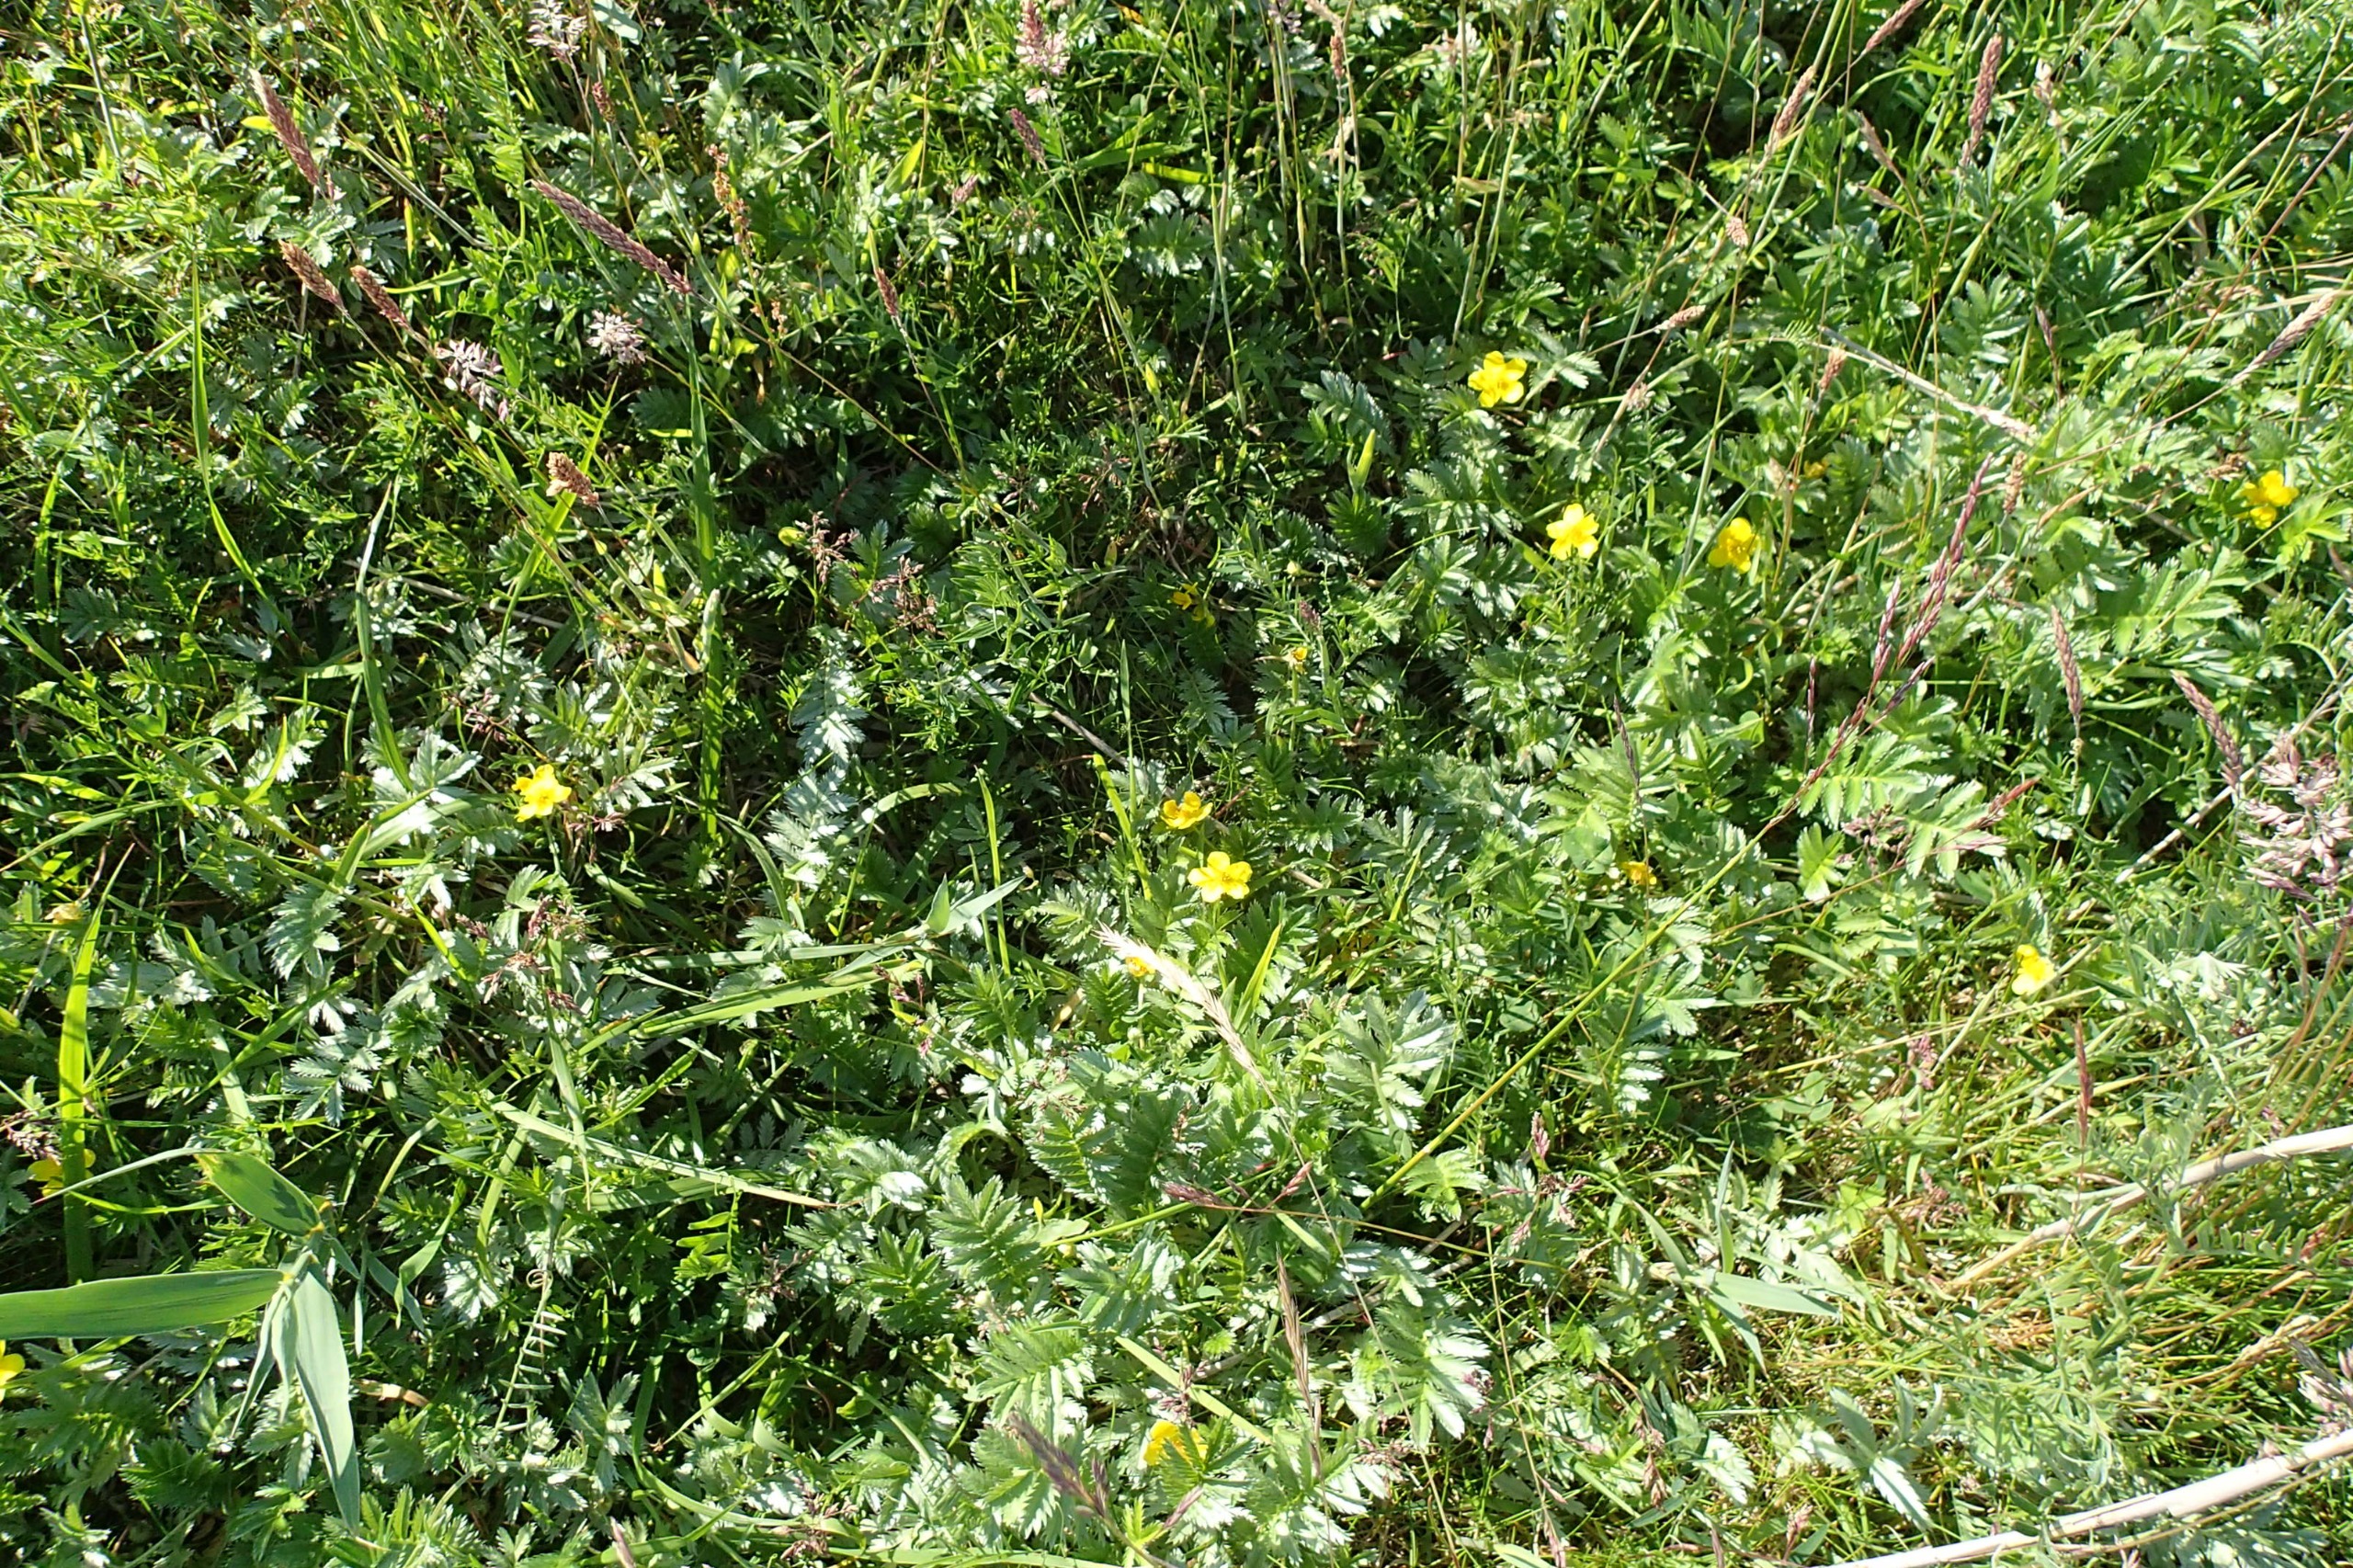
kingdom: Plantae
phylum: Tracheophyta
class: Magnoliopsida
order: Rosales
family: Rosaceae
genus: Argentina
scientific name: Argentina anserina
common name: Gåsepotentil
